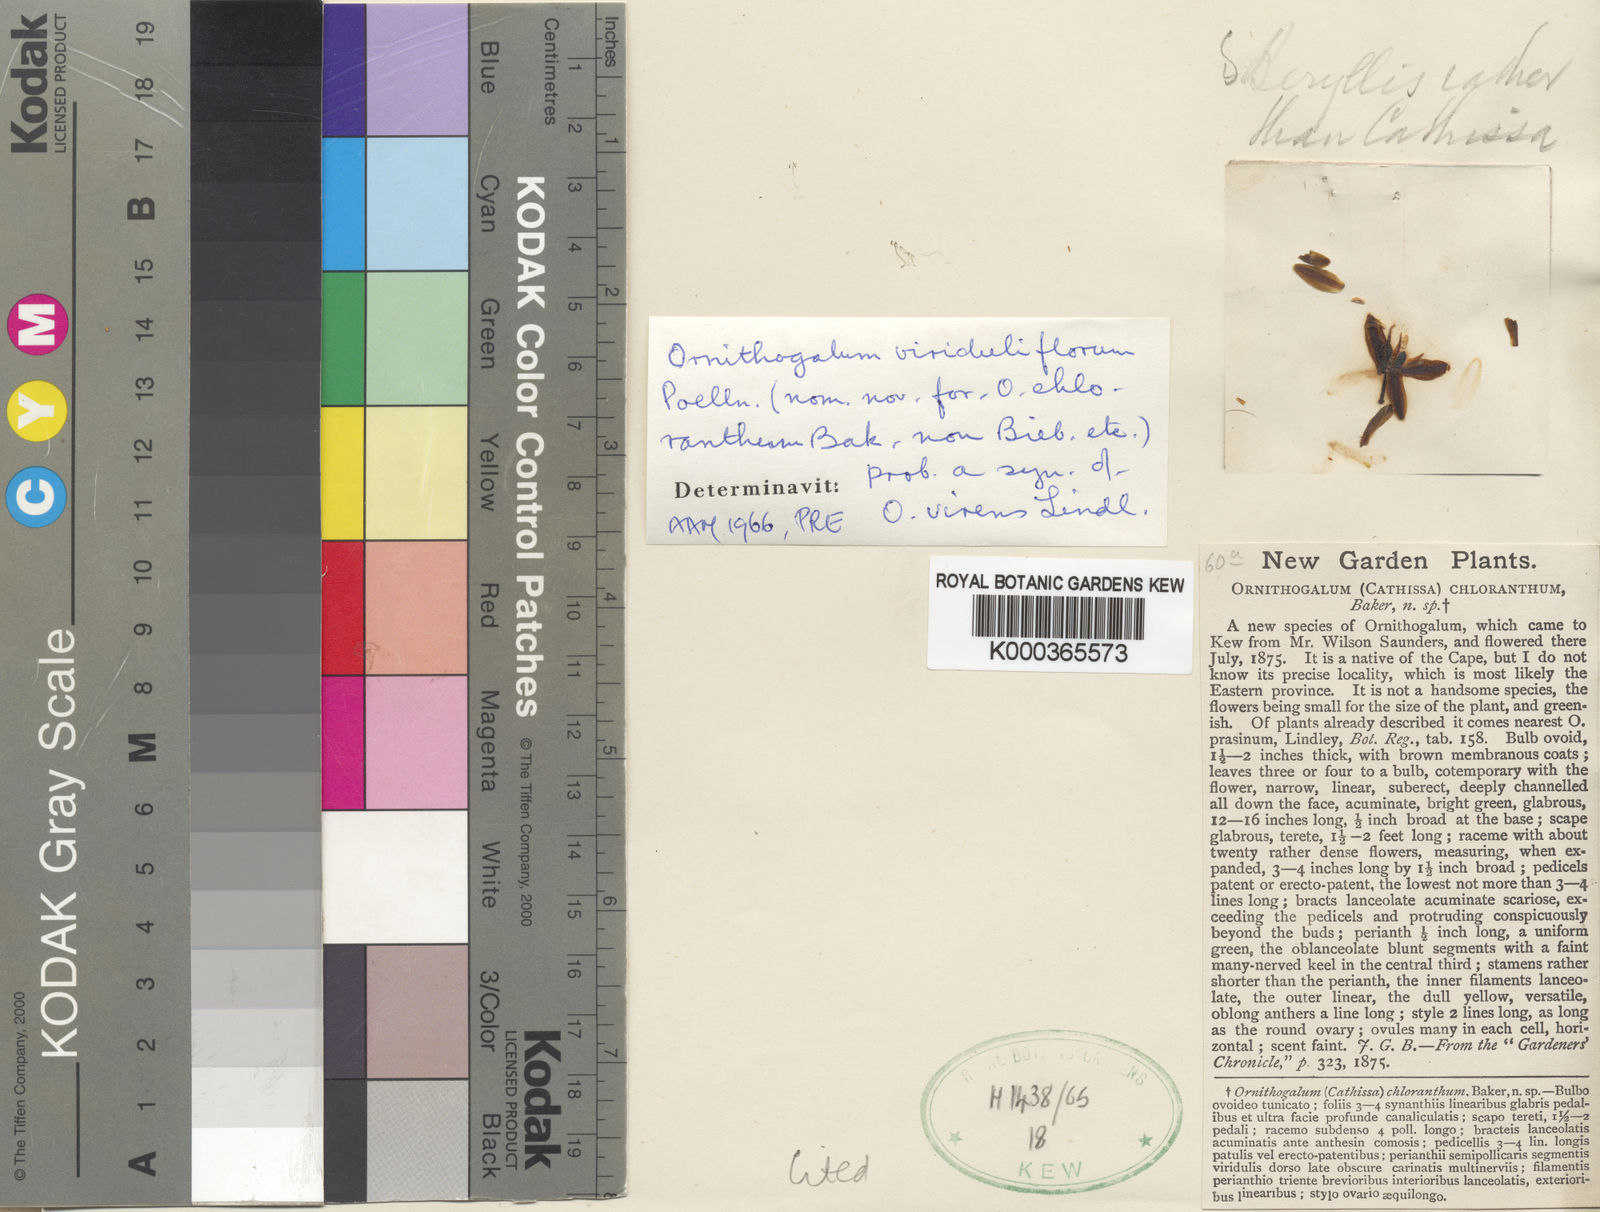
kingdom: Plantae
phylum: Tracheophyta
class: Liliopsida
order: Asparagales
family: Asparagaceae
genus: Ornithogalum
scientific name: Ornithogalum
